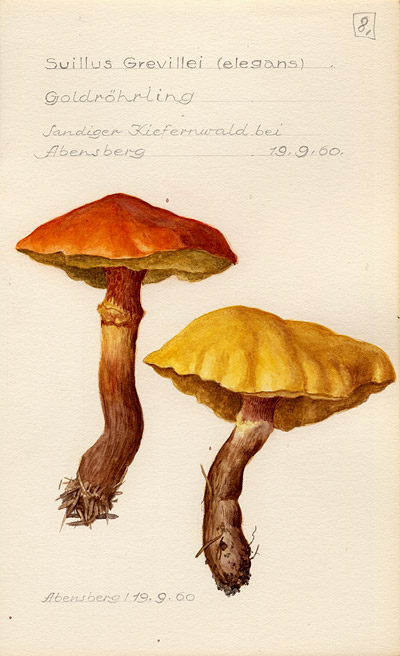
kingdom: Fungi
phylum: Basidiomycota
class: Agaricomycetes
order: Boletales
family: Suillaceae
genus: Suillus
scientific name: Suillus grevillei
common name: Larch bolete
